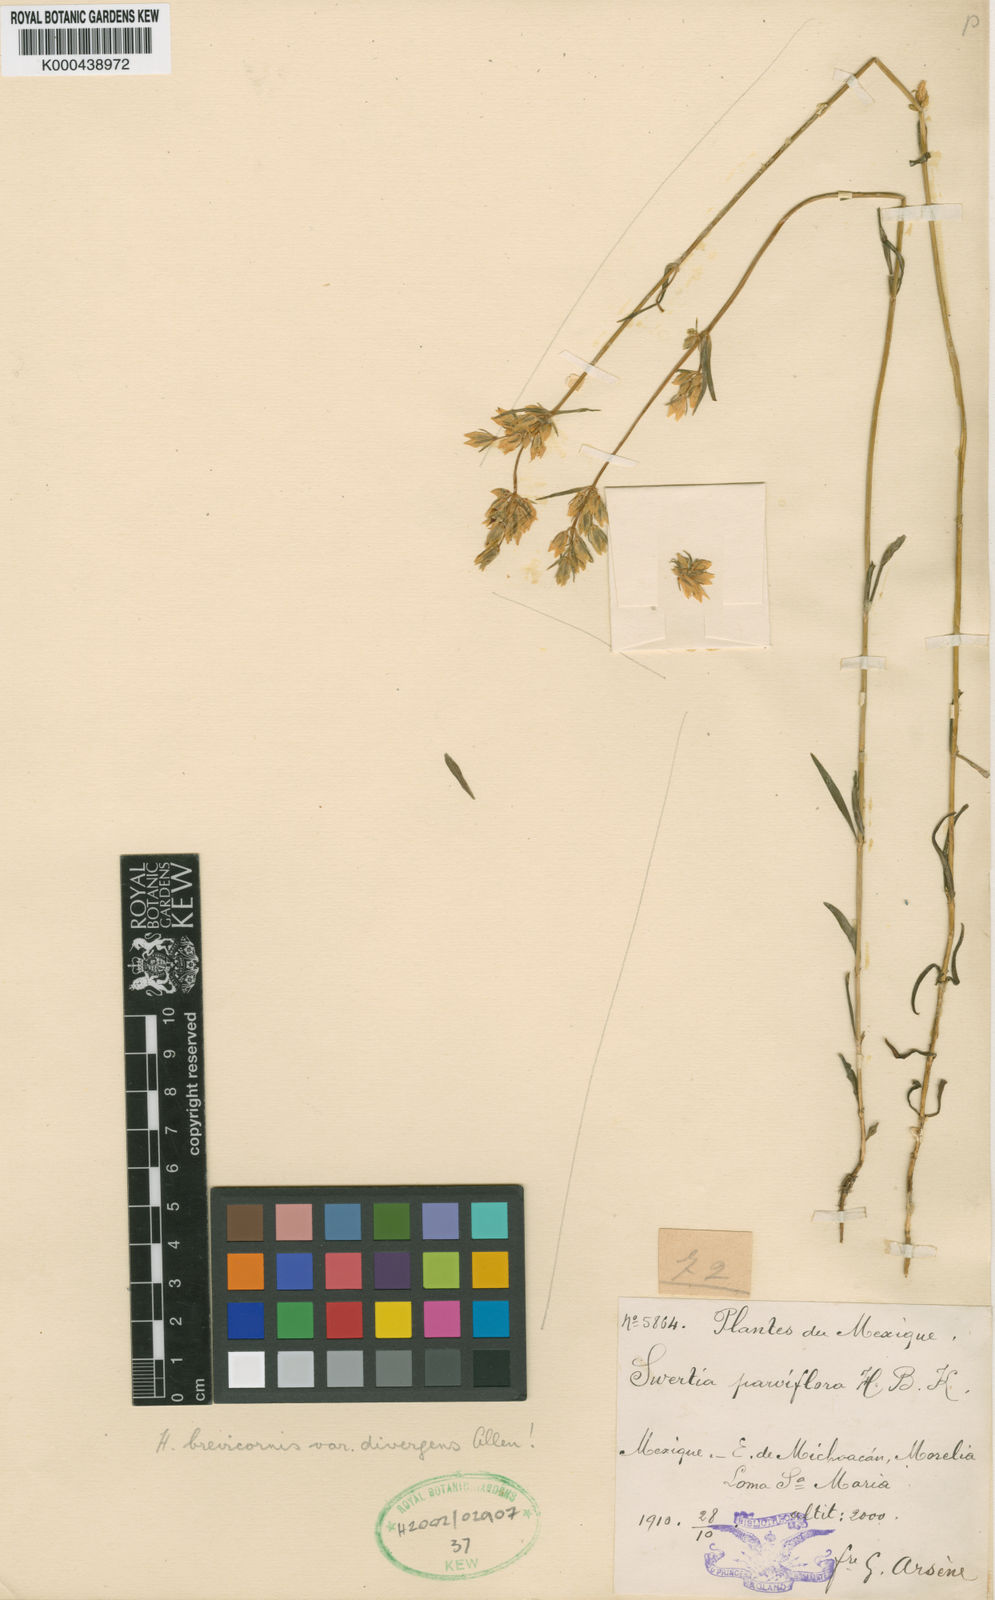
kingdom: Plantae
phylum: Tracheophyta
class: Magnoliopsida
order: Gentianales
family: Gentianaceae
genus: Halenia
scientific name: Halenia brevicornis
